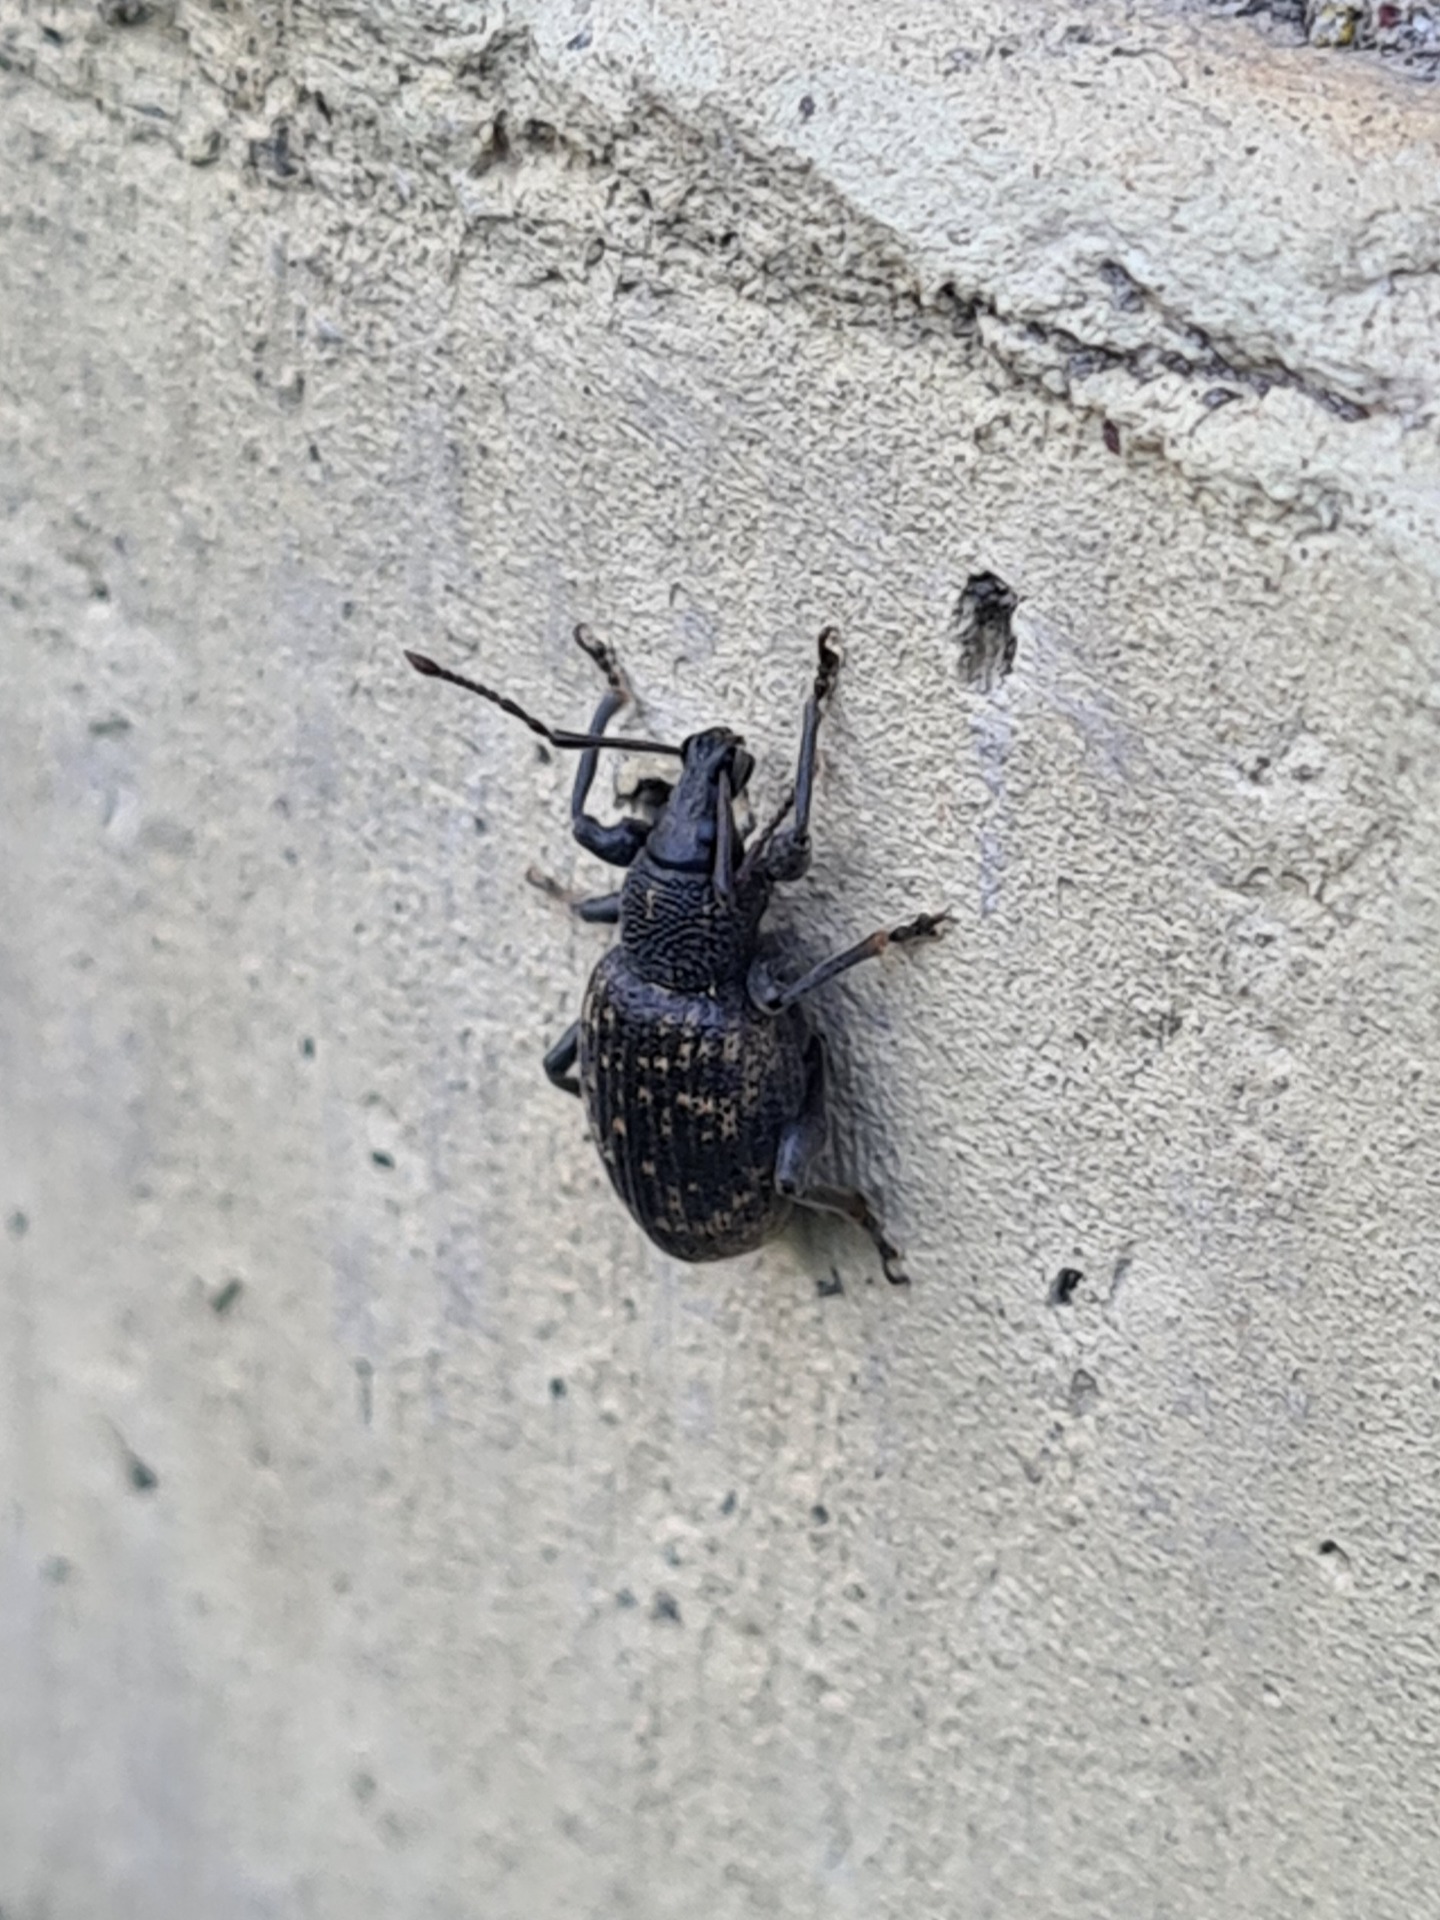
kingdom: Animalia
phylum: Arthropoda
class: Insecta
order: Coleoptera
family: Curculionidae
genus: Otiorhynchus
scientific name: Otiorhynchus sulcatus
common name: Væksthussnudebille
